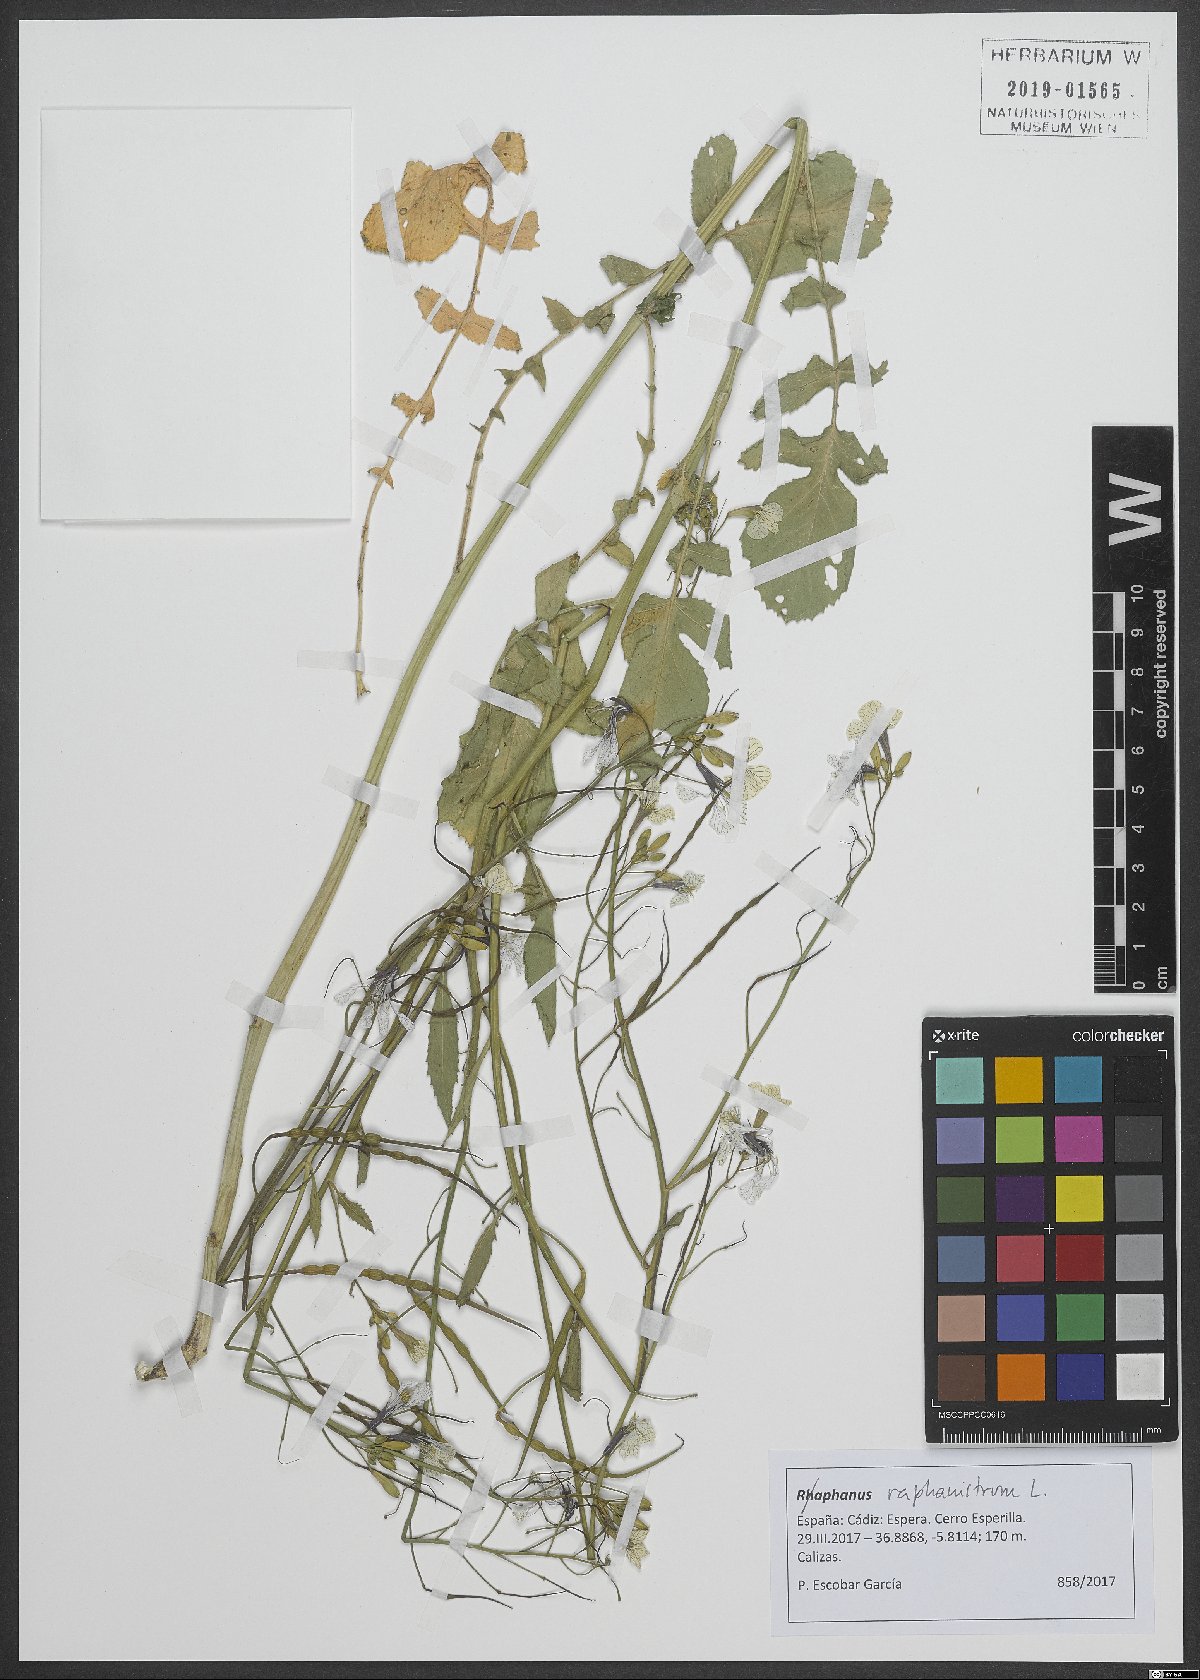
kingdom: Plantae
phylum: Tracheophyta
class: Magnoliopsida
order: Brassicales
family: Brassicaceae
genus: Raphanus
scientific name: Raphanus raphanistrum
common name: Wild radish
